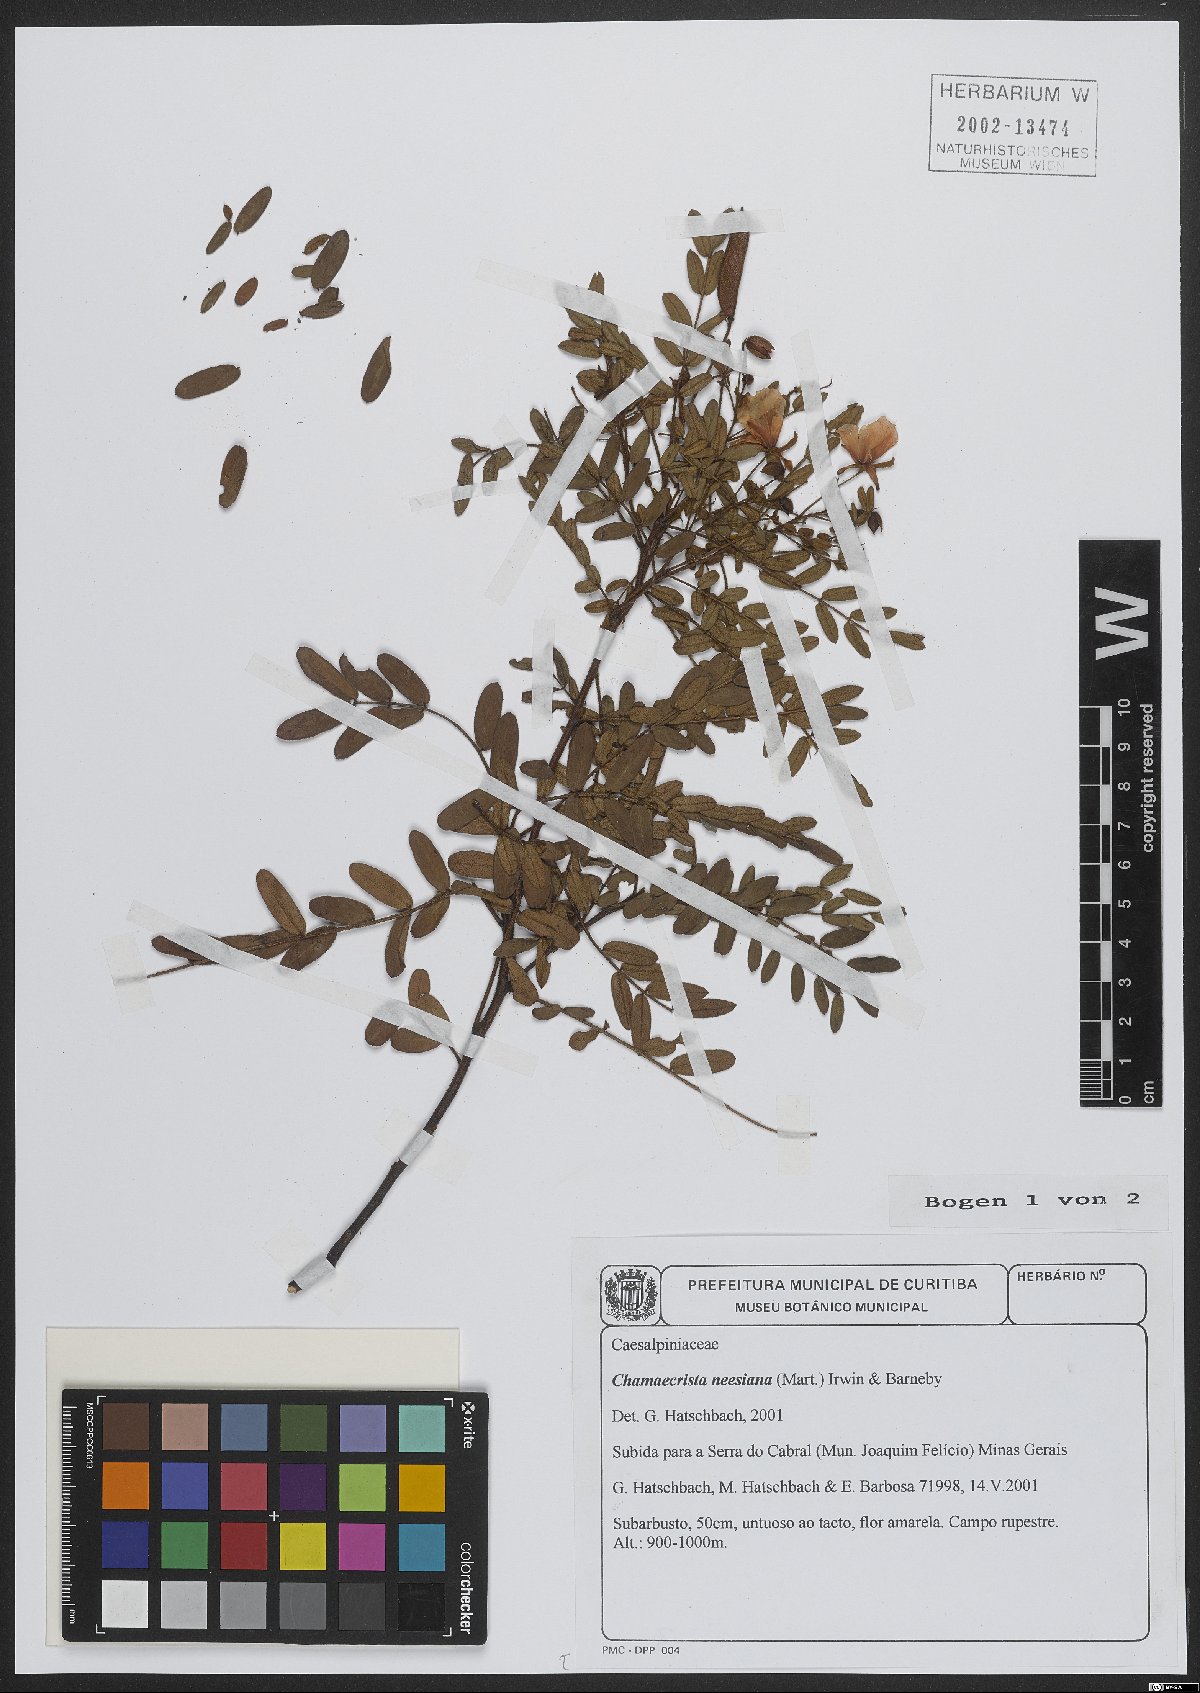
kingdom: Plantae
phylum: Tracheophyta
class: Magnoliopsida
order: Fabales
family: Fabaceae
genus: Chamaecrista
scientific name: Chamaecrista neesiana
